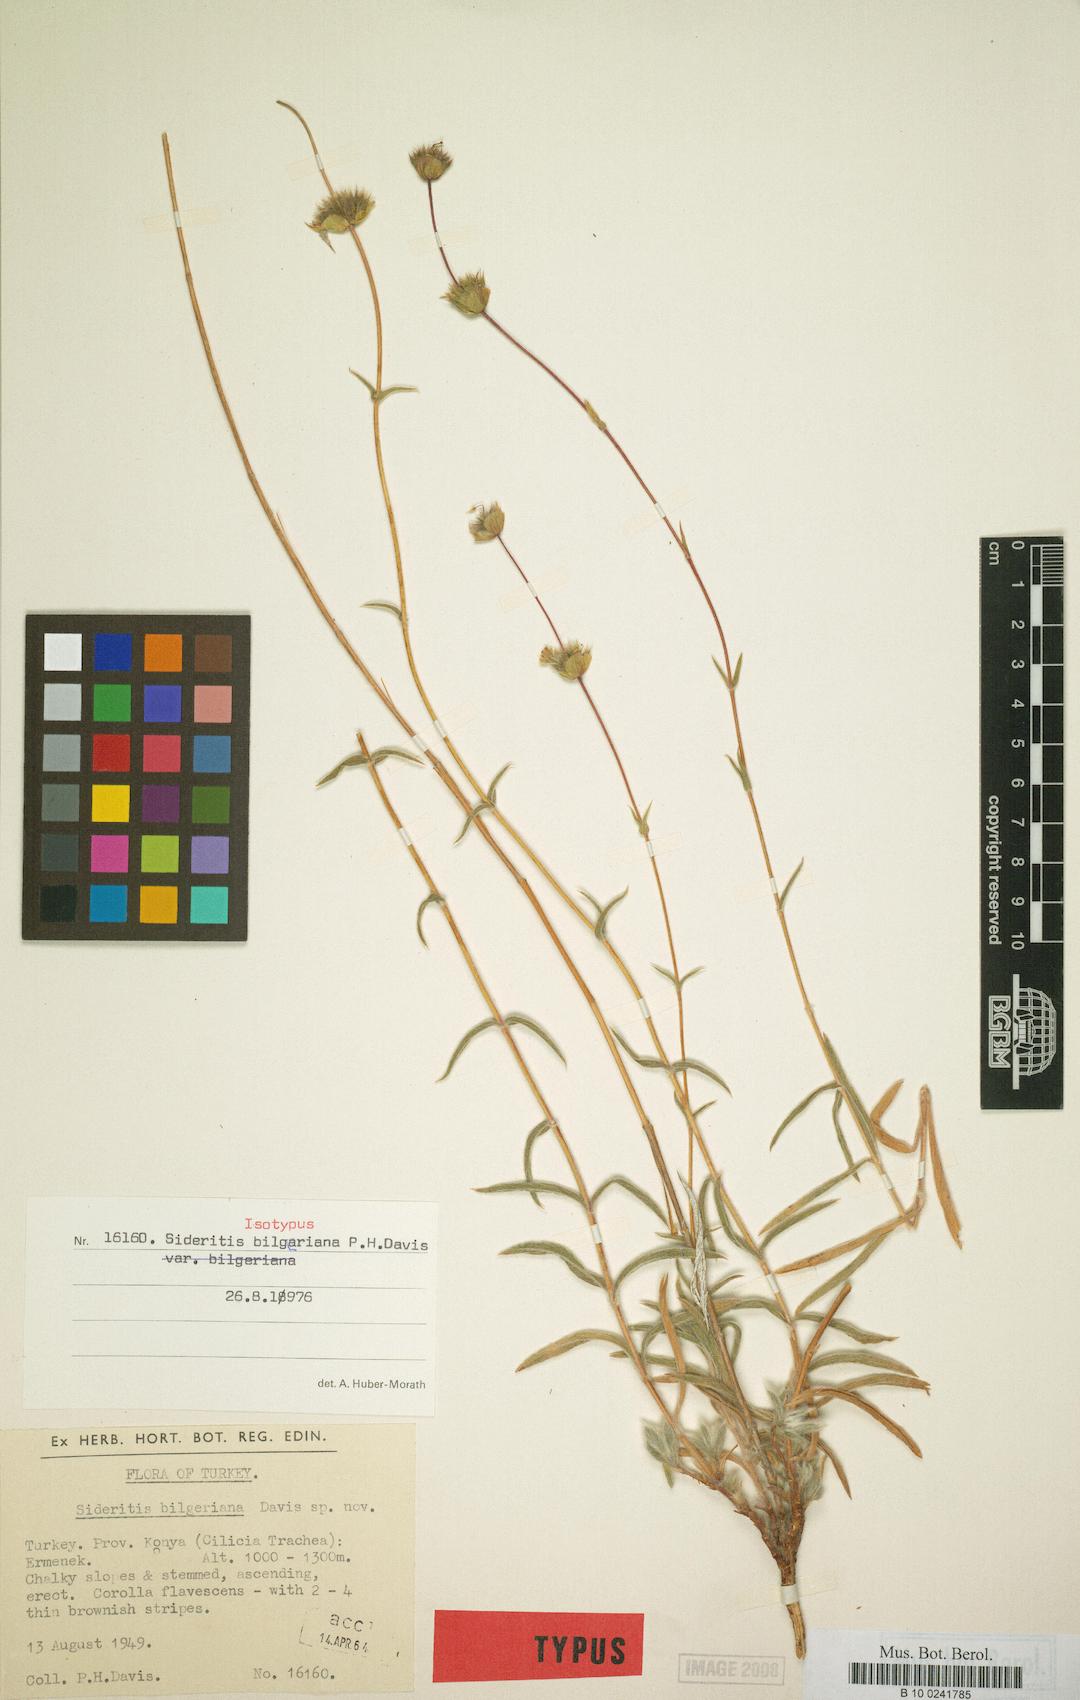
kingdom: Plantae
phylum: Tracheophyta
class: Magnoliopsida
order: Lamiales
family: Lamiaceae
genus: Sideritis
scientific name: Sideritis bilgeriana
